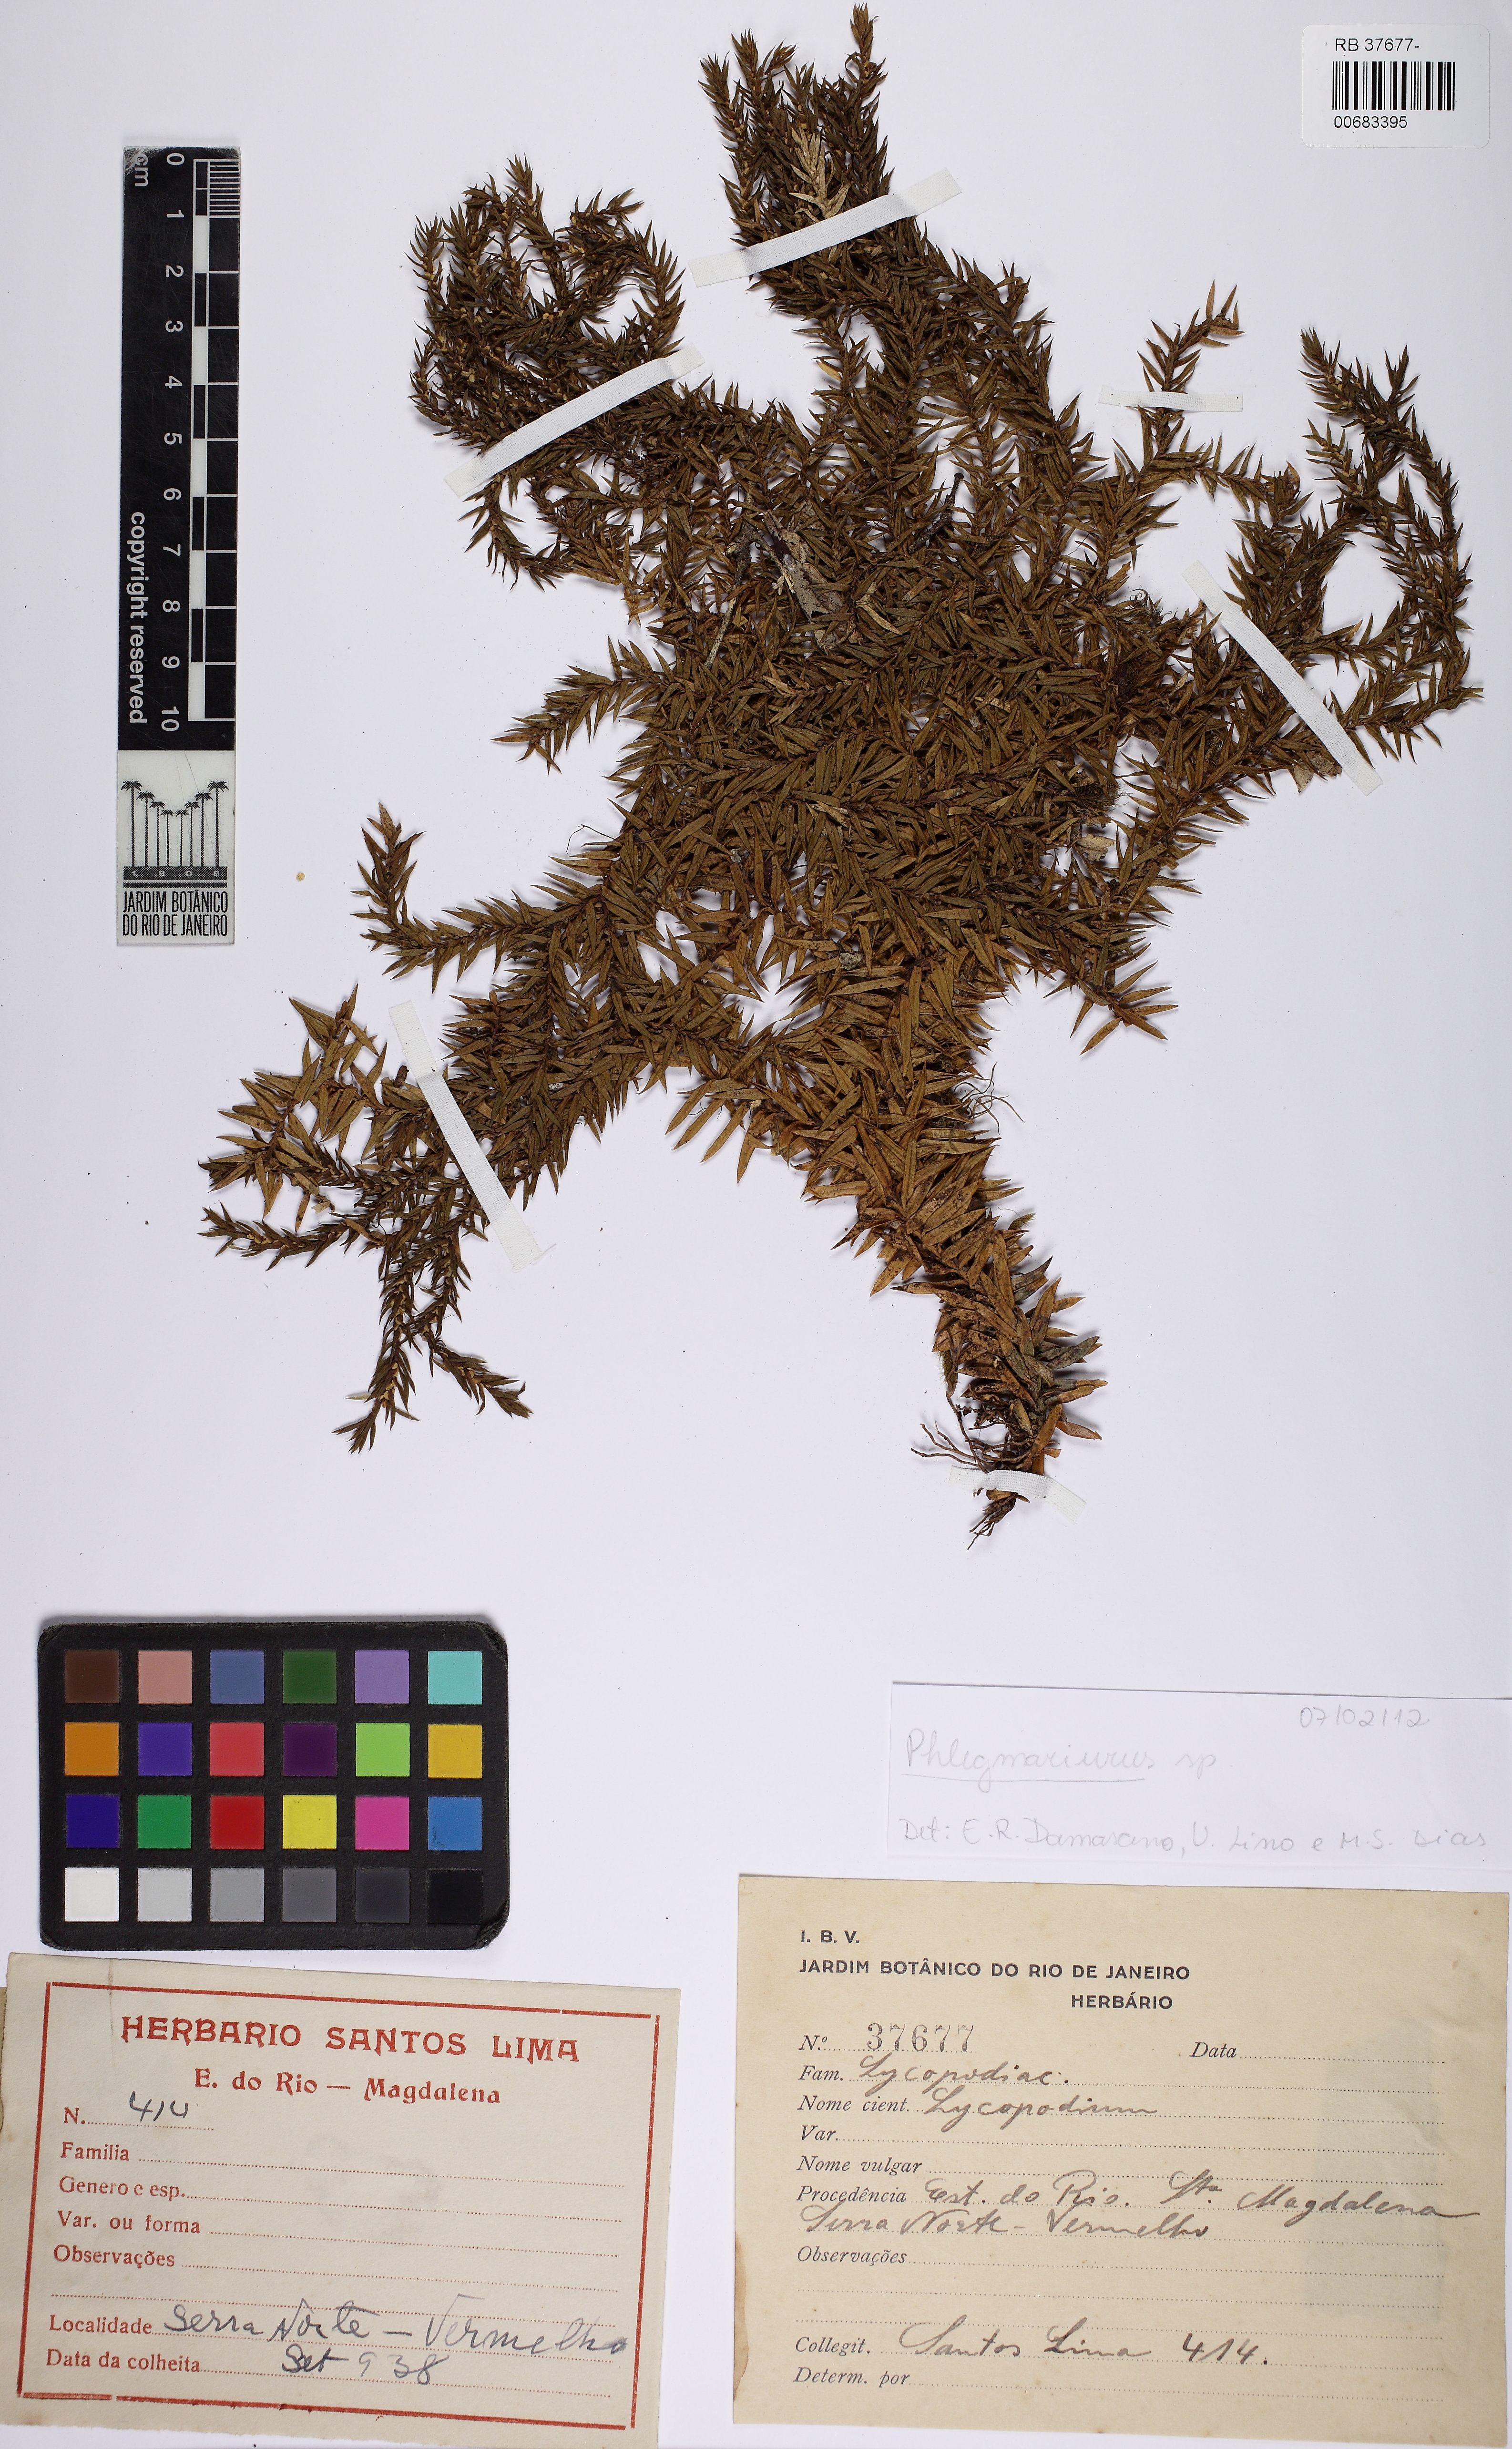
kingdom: Plantae
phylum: Tracheophyta
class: Lycopodiopsida
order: Lycopodiales
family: Lycopodiaceae
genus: Phlegmariurus
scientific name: Phlegmariurus silveirae
